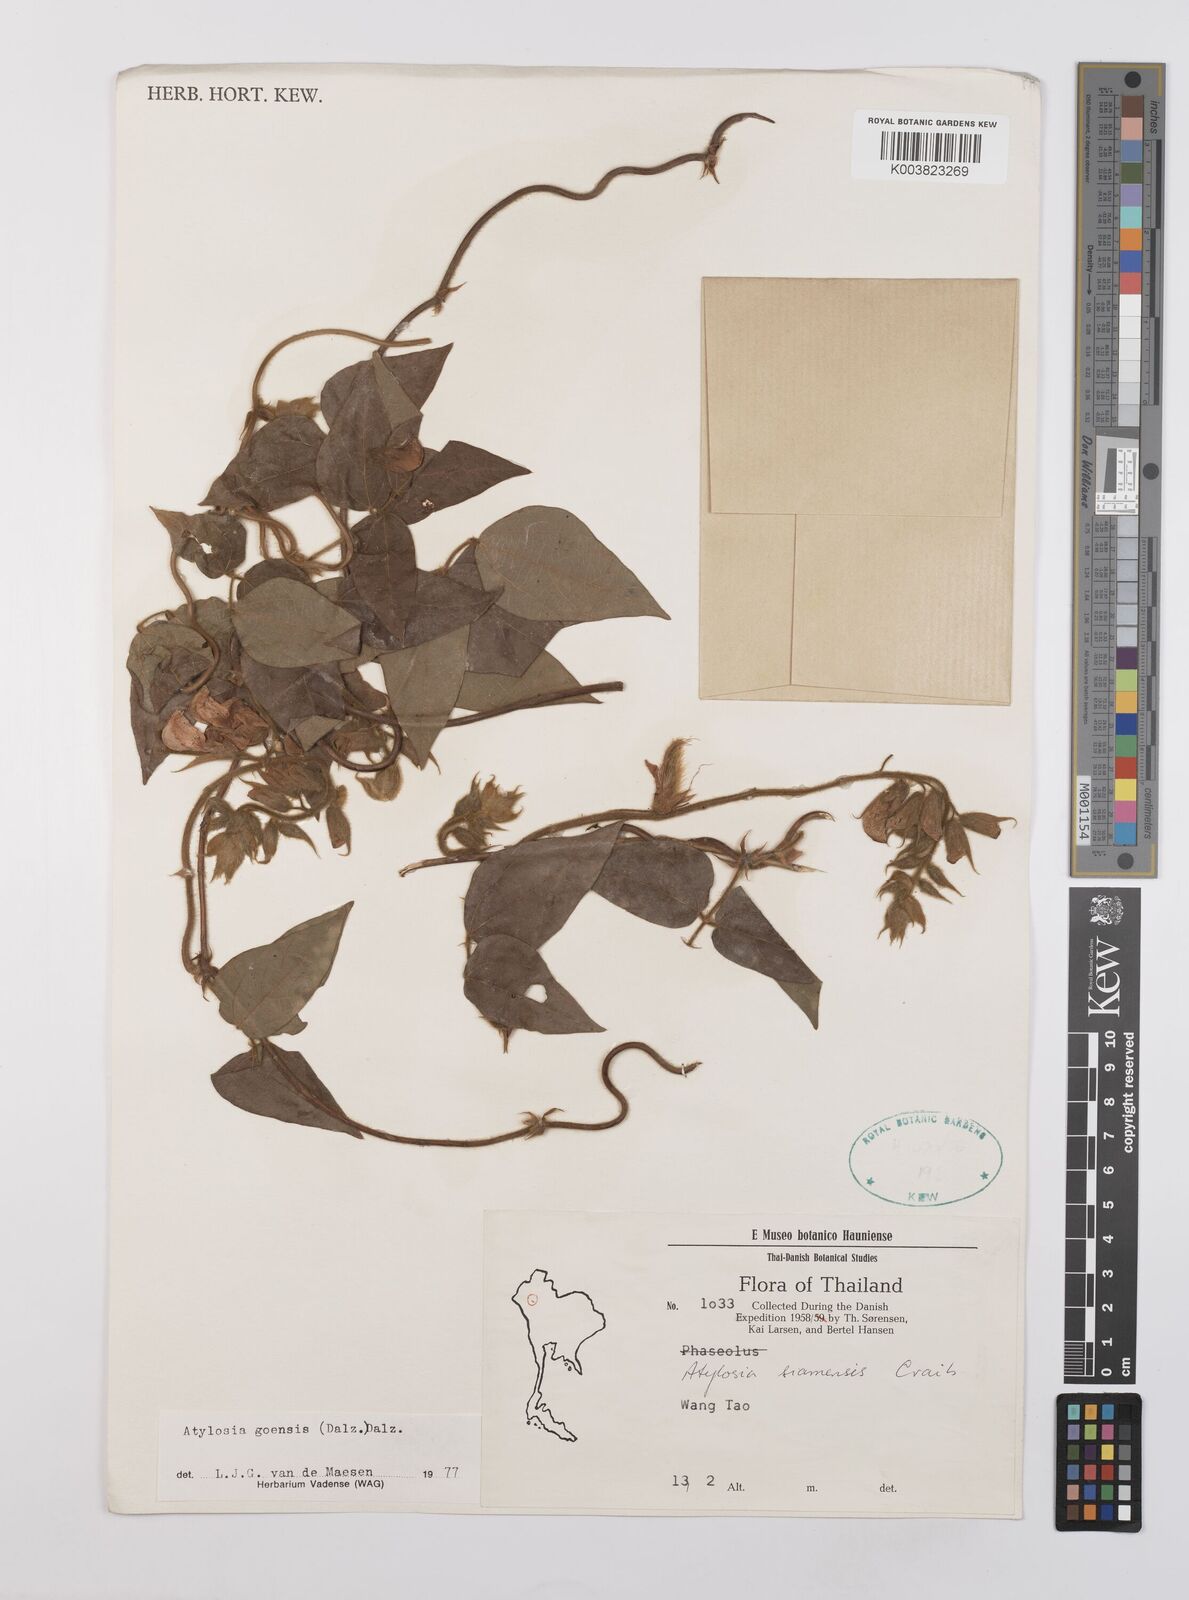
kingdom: Plantae
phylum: Tracheophyta
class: Magnoliopsida
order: Fabales
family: Fabaceae
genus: Cajanus
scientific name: Cajanus goensis
